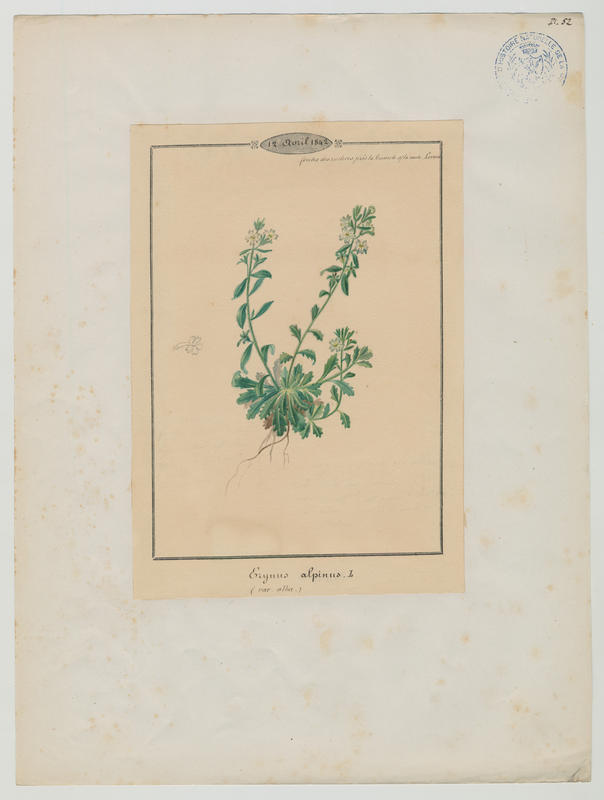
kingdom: Plantae
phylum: Tracheophyta
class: Magnoliopsida
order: Lamiales
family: Plantaginaceae
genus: Erinus
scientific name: Erinus alpinus
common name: Fairy foxglove
